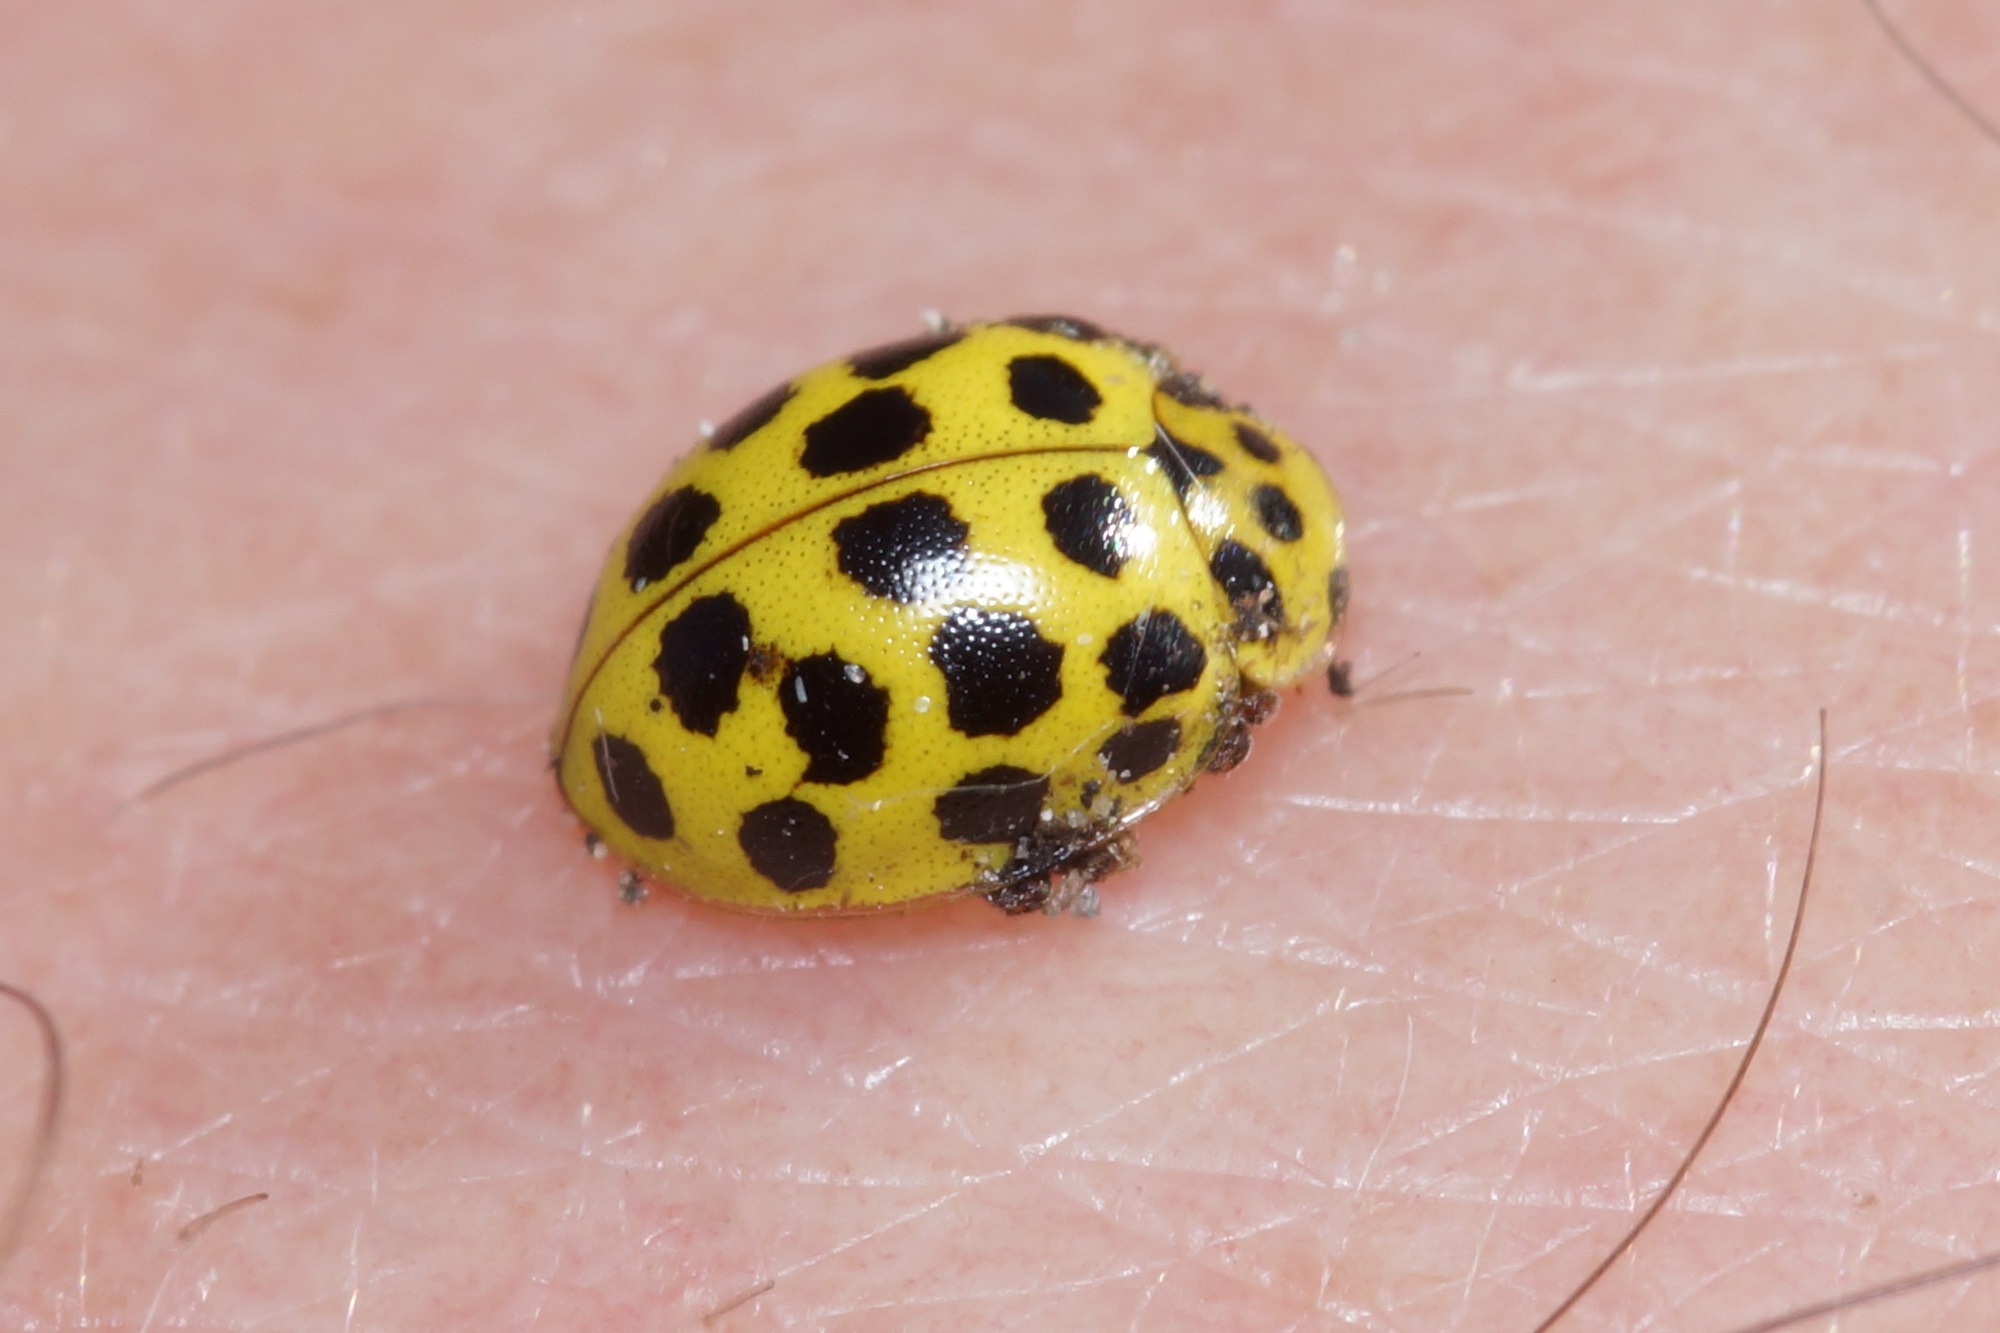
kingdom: Animalia
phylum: Arthropoda
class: Insecta
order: Coleoptera
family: Coccinellidae
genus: Psyllobora
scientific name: Psyllobora vigintiduopunctata
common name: Toogtyveplettet mariehøne
